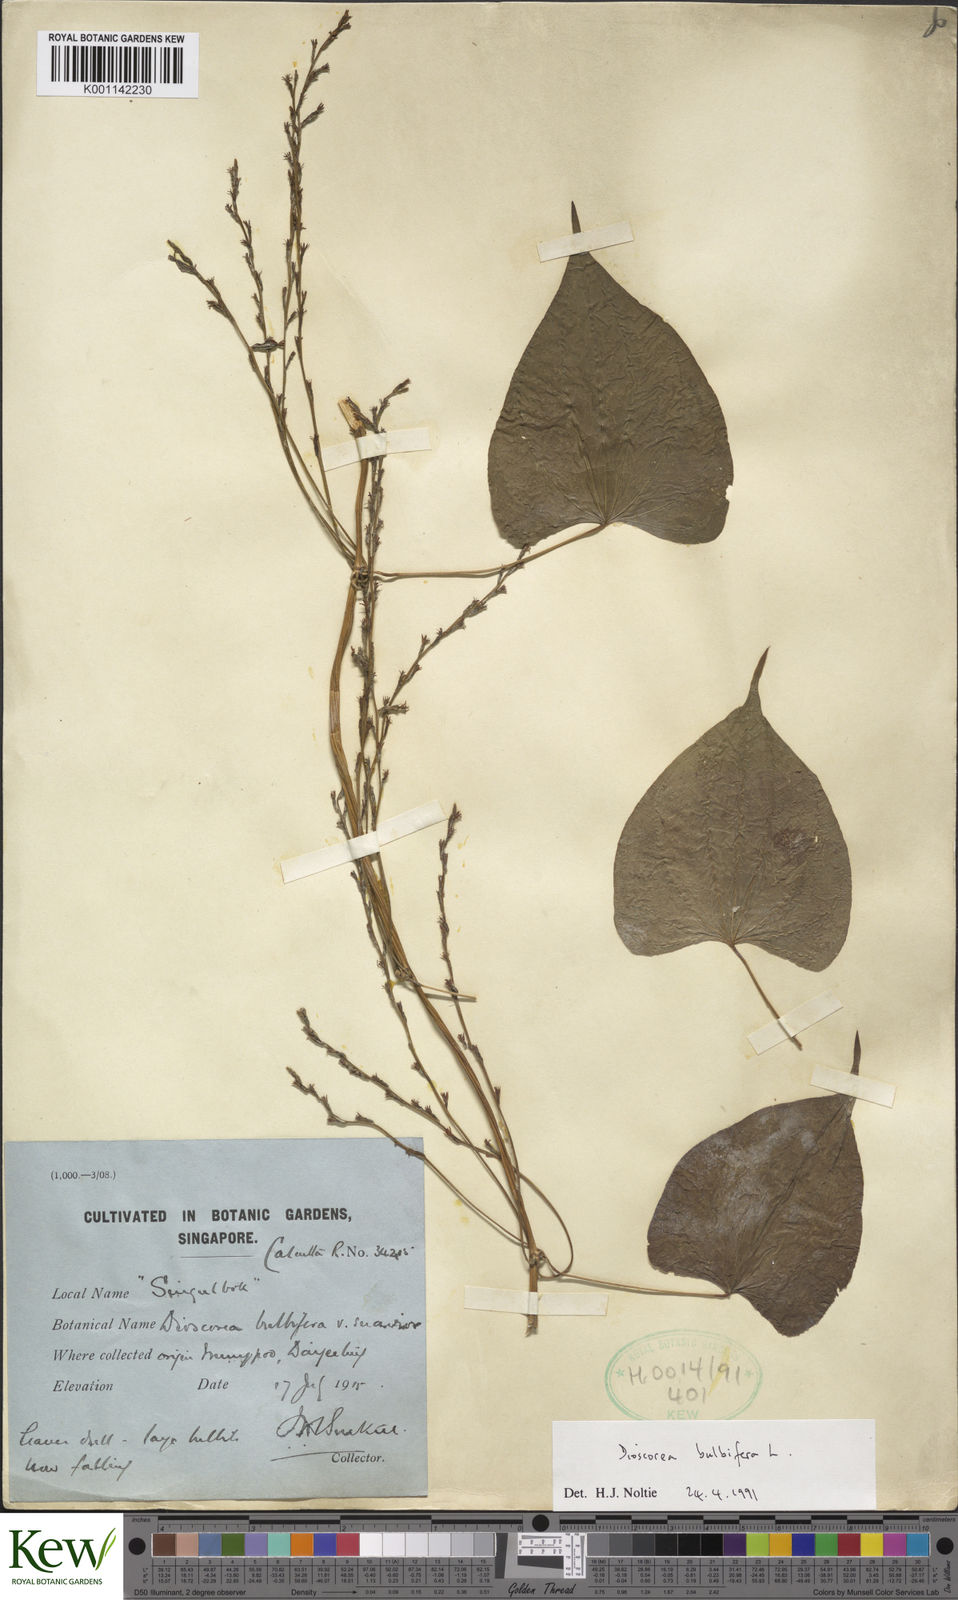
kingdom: Plantae
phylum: Tracheophyta
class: Liliopsida
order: Dioscoreales
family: Dioscoreaceae
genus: Dioscorea
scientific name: Dioscorea bulbifera
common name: Air yam
